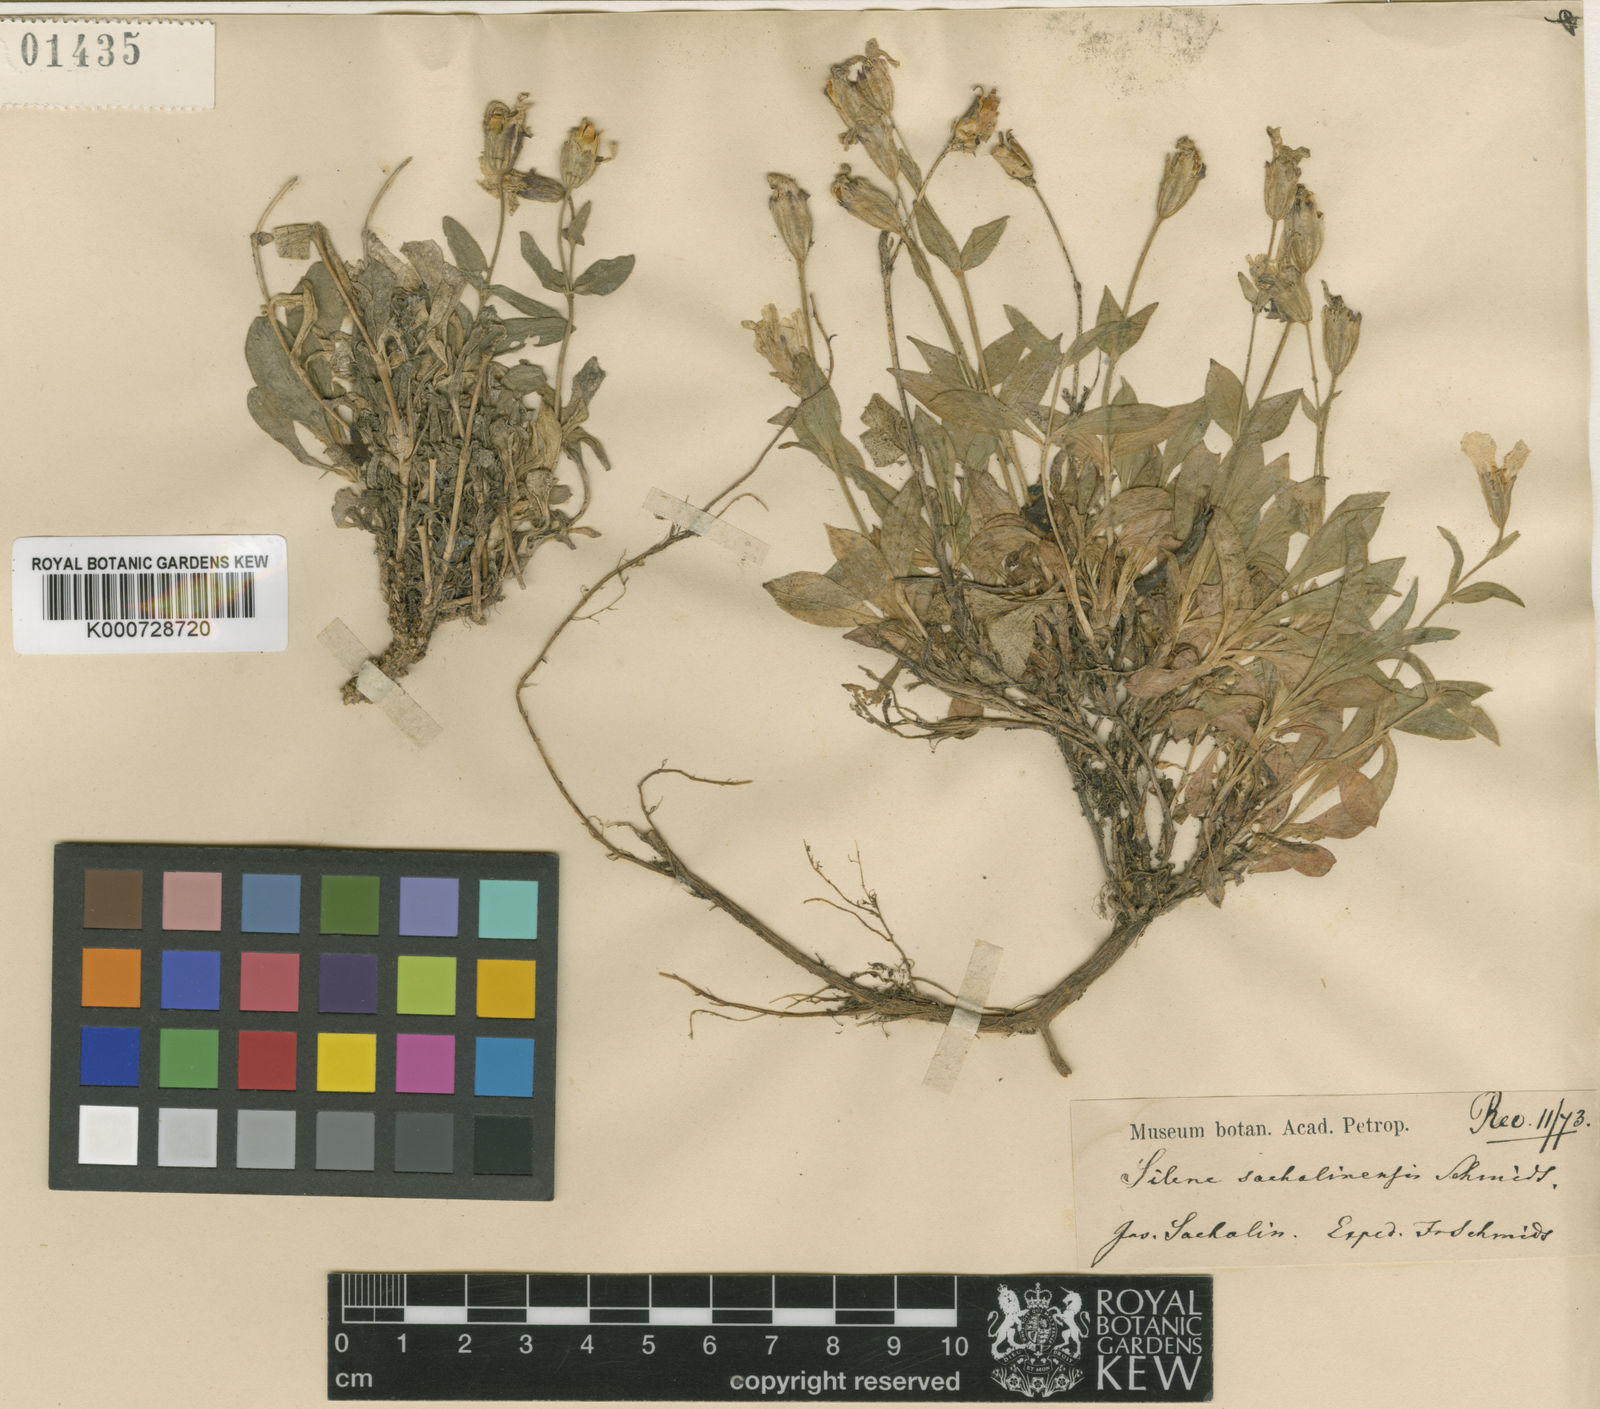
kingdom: Plantae
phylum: Tracheophyta
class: Magnoliopsida
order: Caryophyllales
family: Caryophyllaceae
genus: Silene
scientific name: Silene sachalinensis
